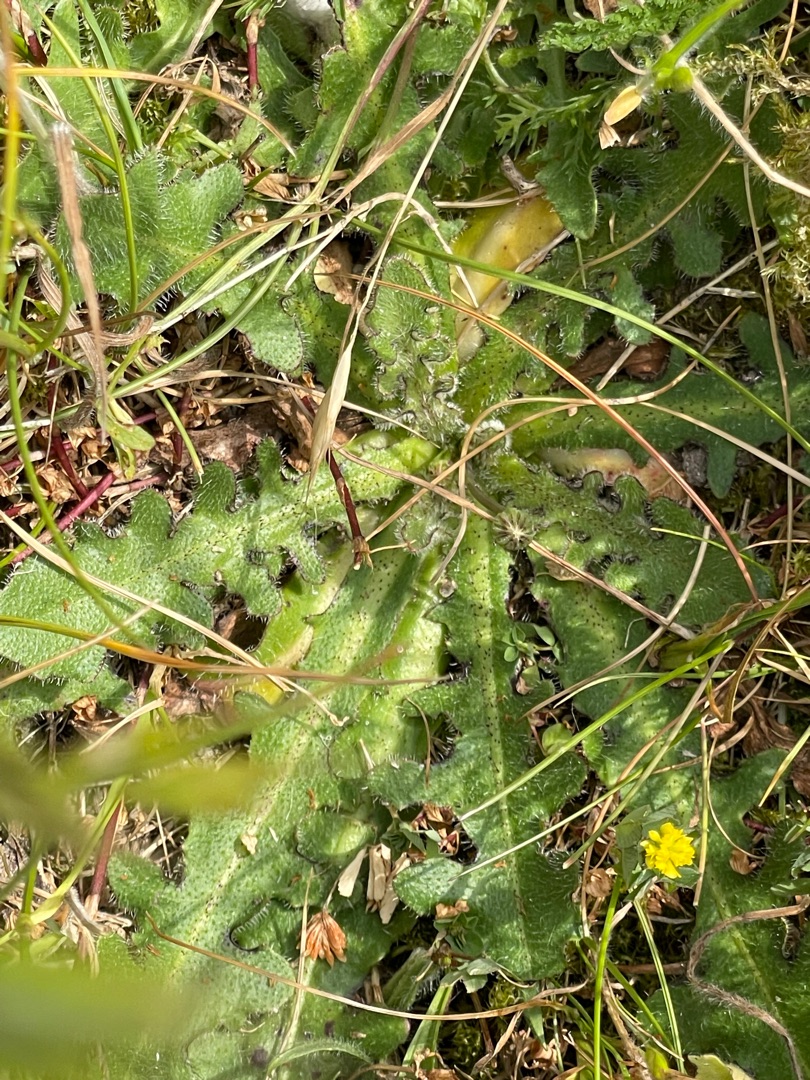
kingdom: Plantae
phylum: Tracheophyta
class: Magnoliopsida
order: Asterales
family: Asteraceae
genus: Hypochaeris
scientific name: Hypochaeris radicata
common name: Almindelig kongepen
